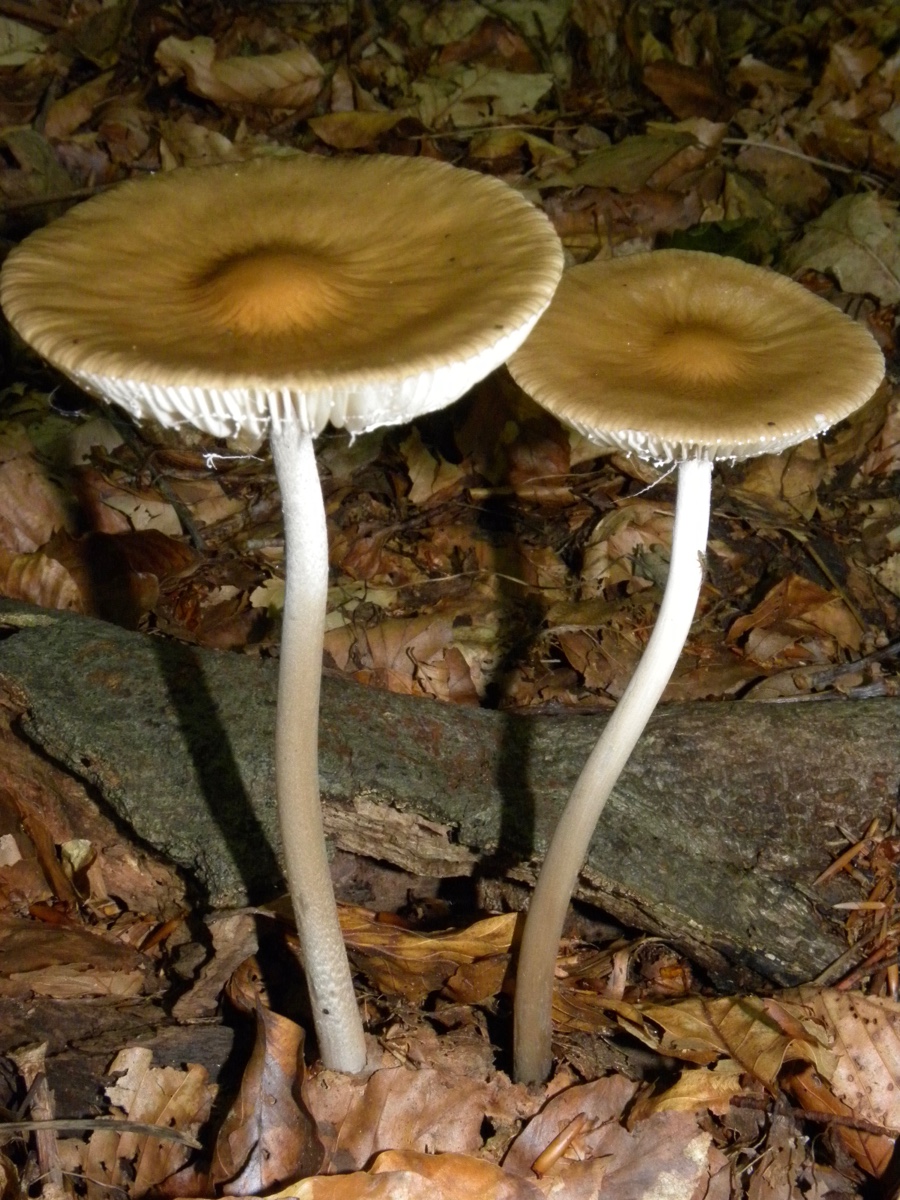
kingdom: Fungi
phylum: Basidiomycota
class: Agaricomycetes
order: Agaricales
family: Physalacriaceae
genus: Hymenopellis
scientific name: Hymenopellis radicata
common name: almindelig pælerodshat
